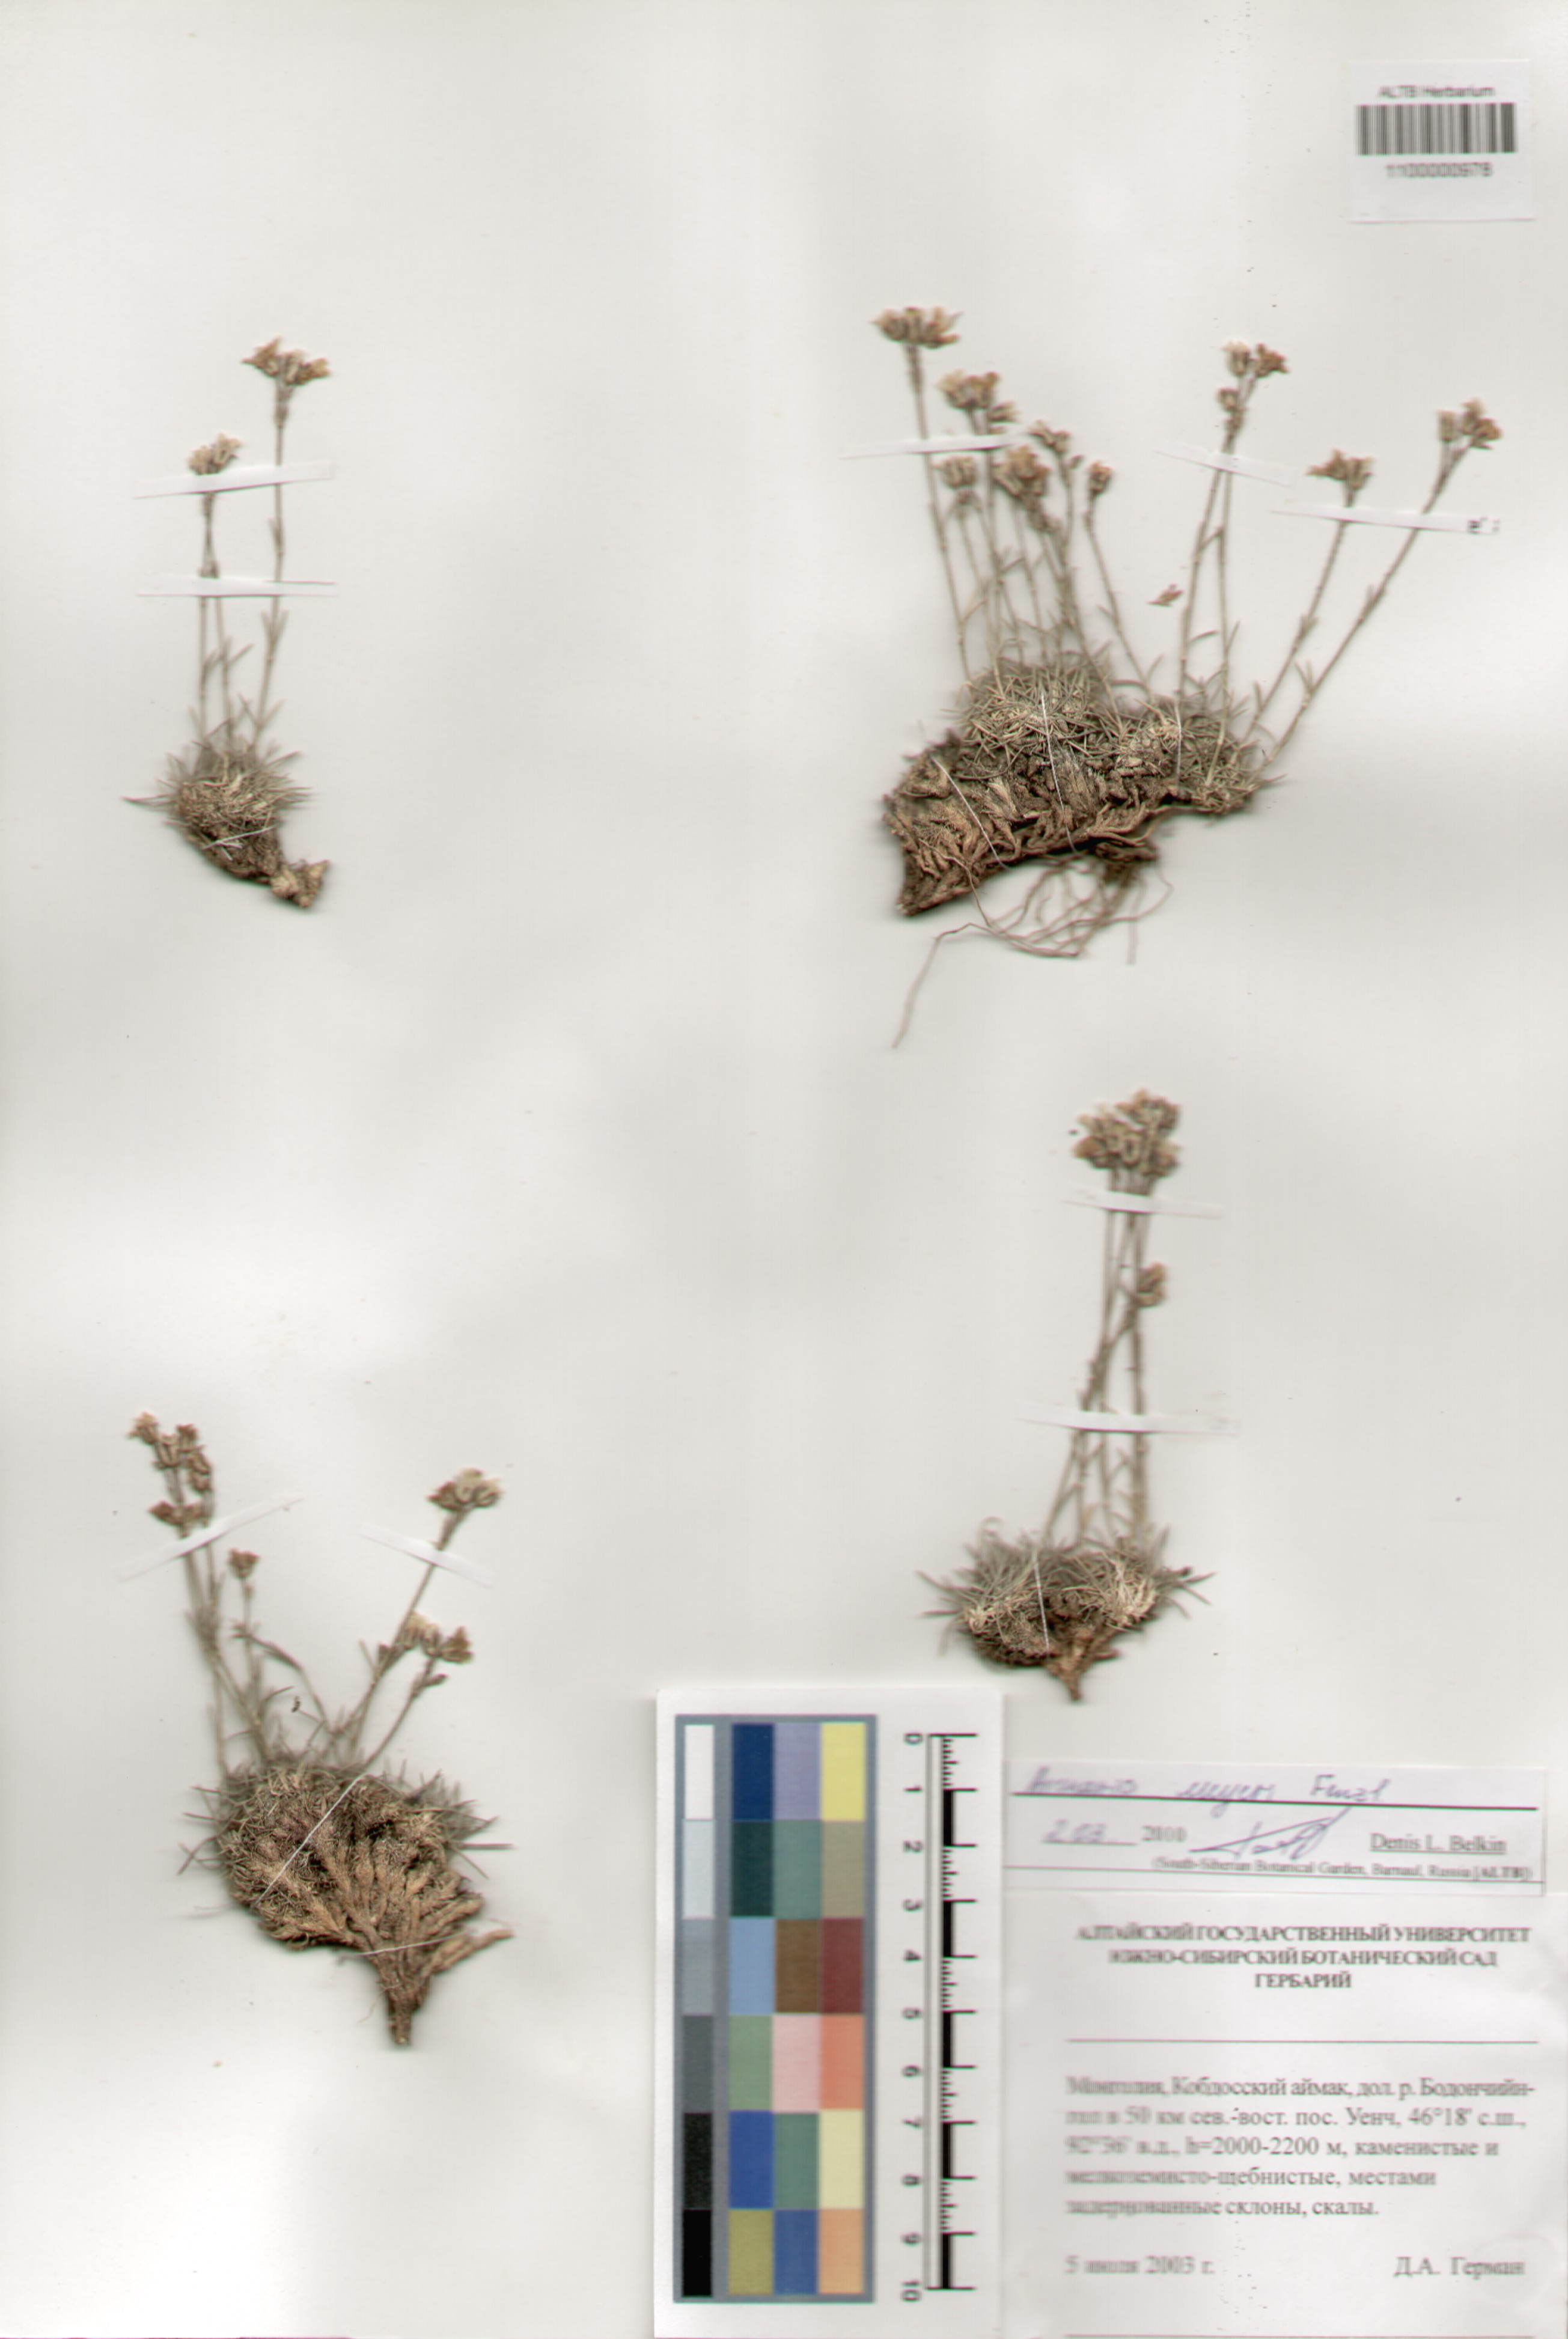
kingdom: Plantae
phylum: Tracheophyta
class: Magnoliopsida
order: Caryophyllales
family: Caryophyllaceae
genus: Eremogone
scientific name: Eremogone meyeri
